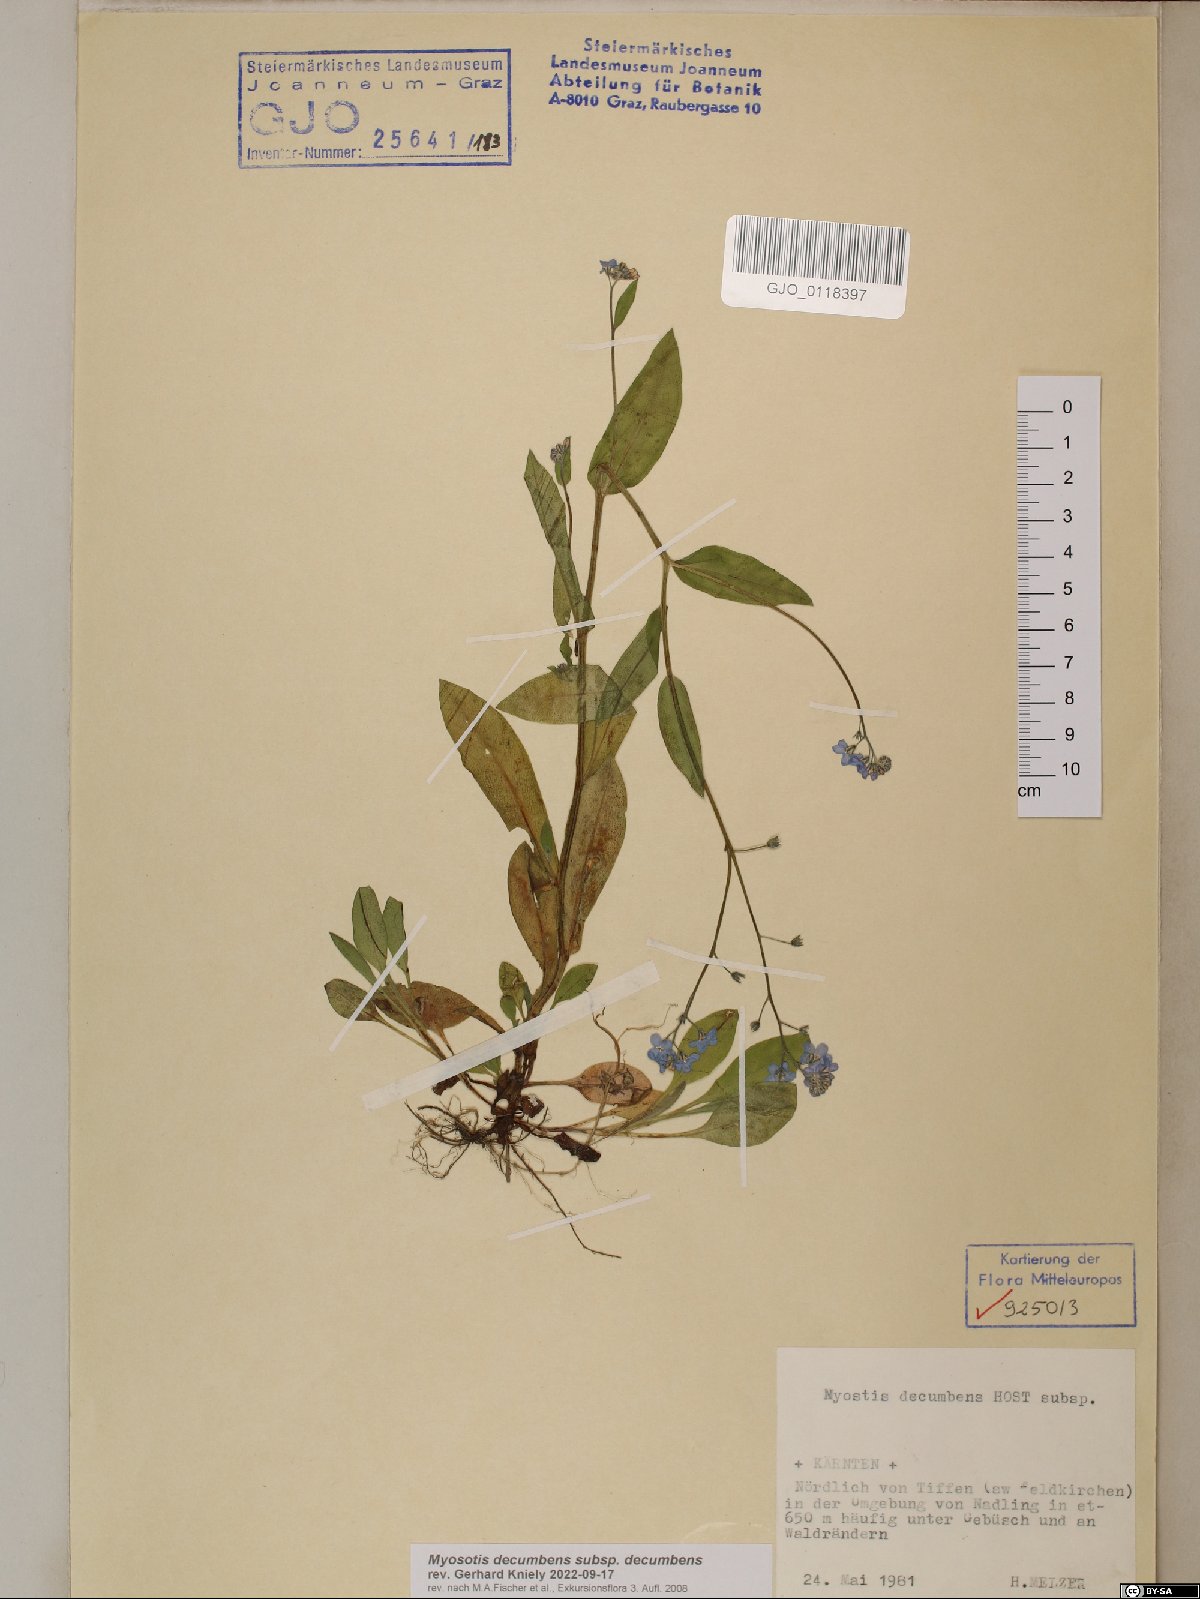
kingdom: Plantae
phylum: Tracheophyta
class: Magnoliopsida
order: Boraginales
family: Boraginaceae
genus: Myosotis
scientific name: Myosotis decumbens
